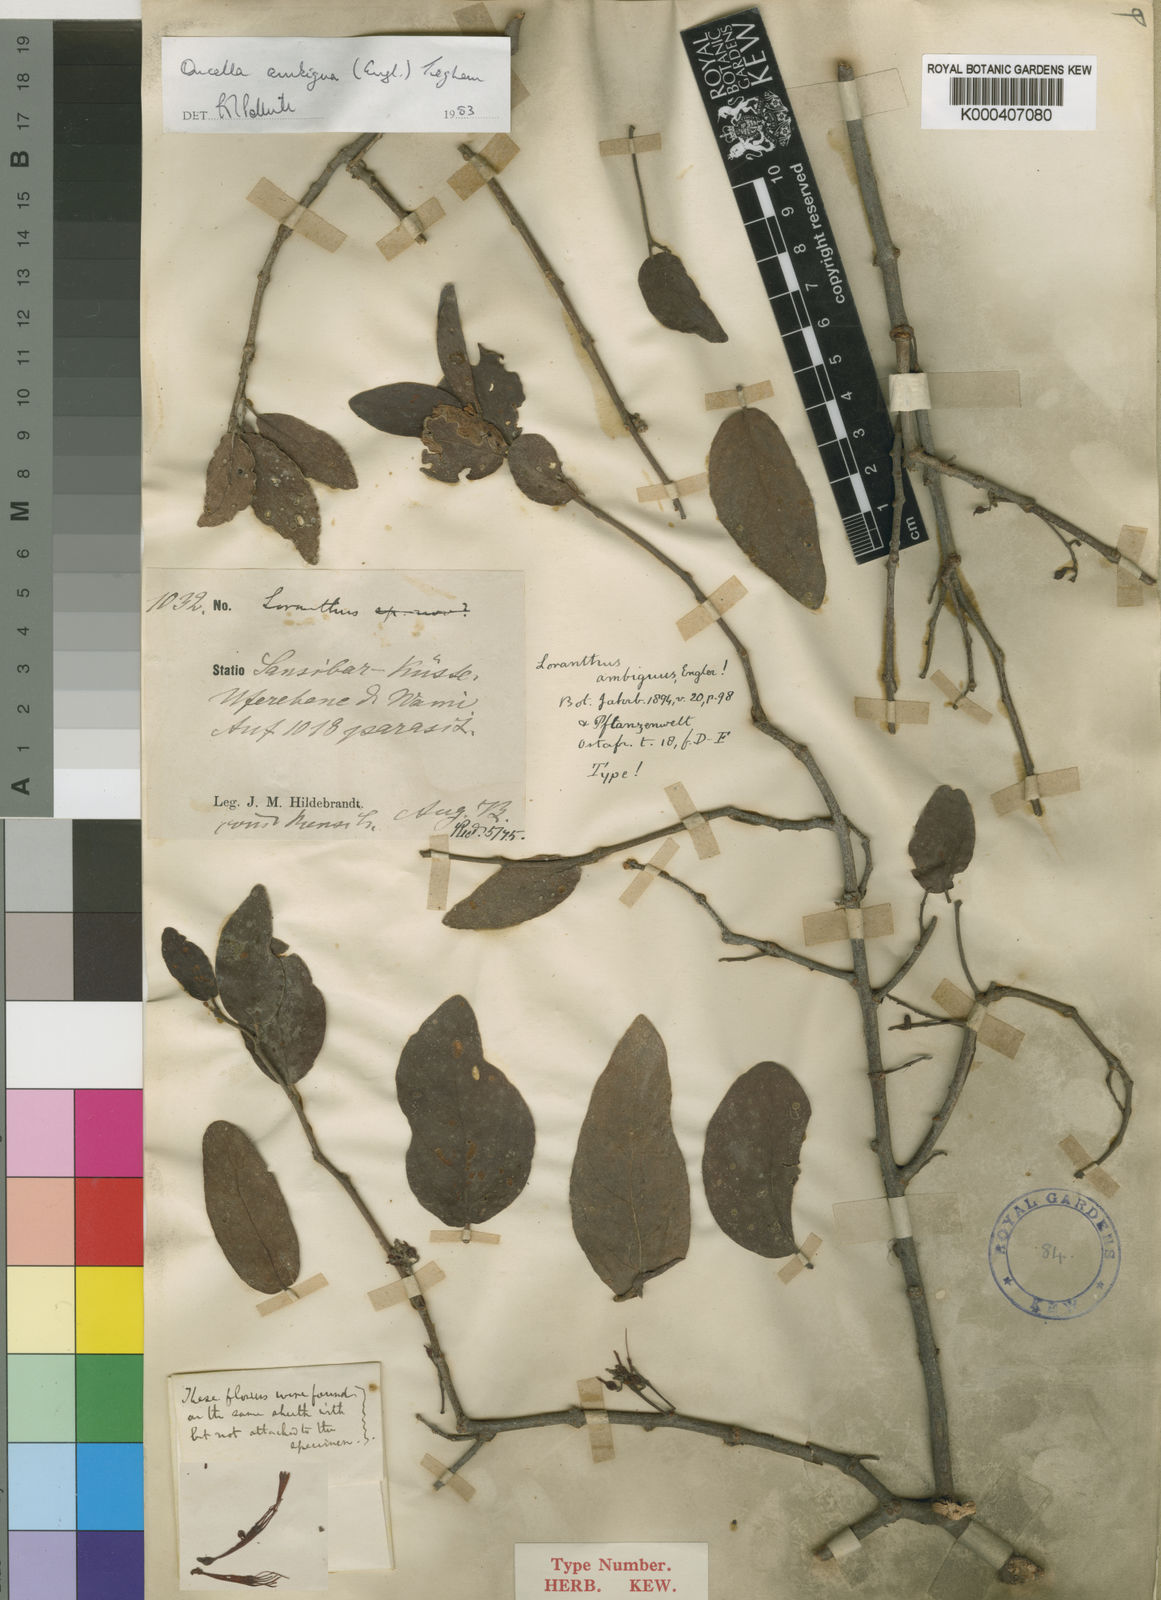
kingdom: Plantae
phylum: Tracheophyta
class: Magnoliopsida
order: Santalales
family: Loranthaceae
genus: Oncella
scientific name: Oncella ambigua
